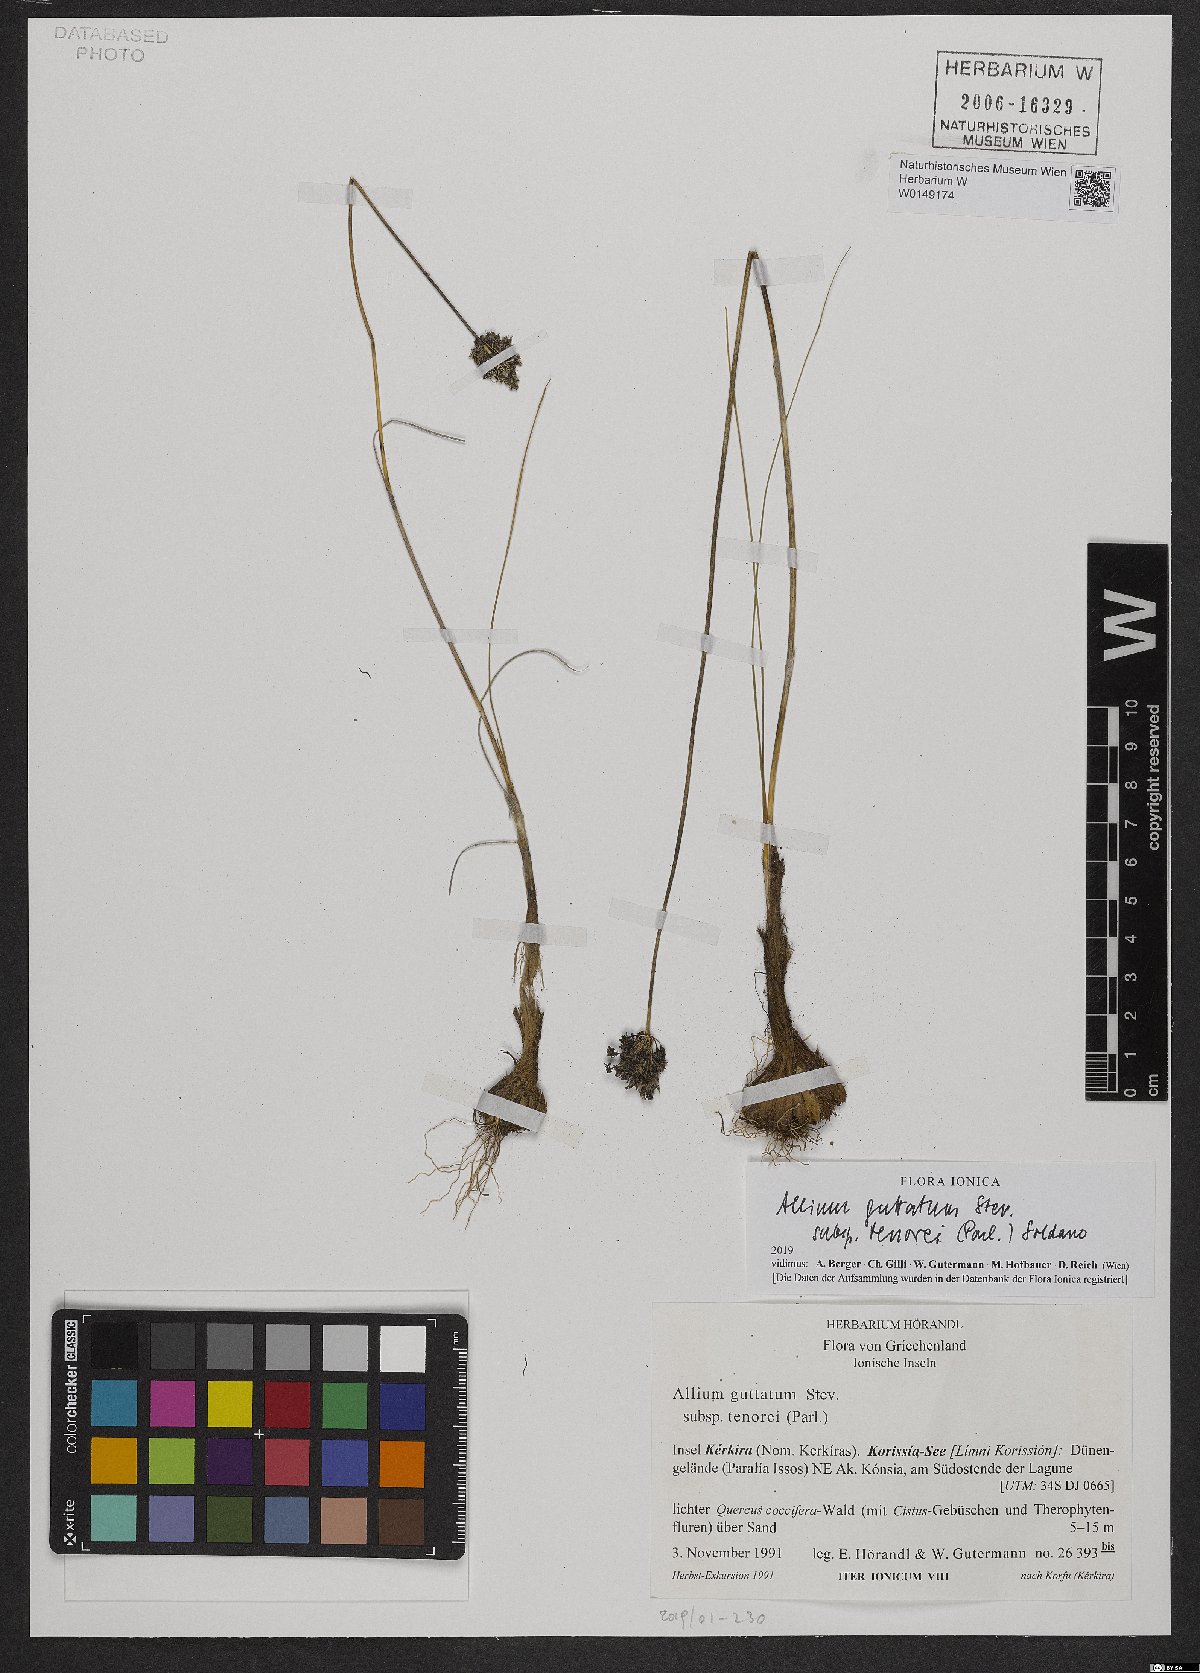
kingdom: Plantae
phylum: Tracheophyta
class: Liliopsida
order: Asparagales
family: Amaryllidaceae
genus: Allium
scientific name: Allium sardoum
